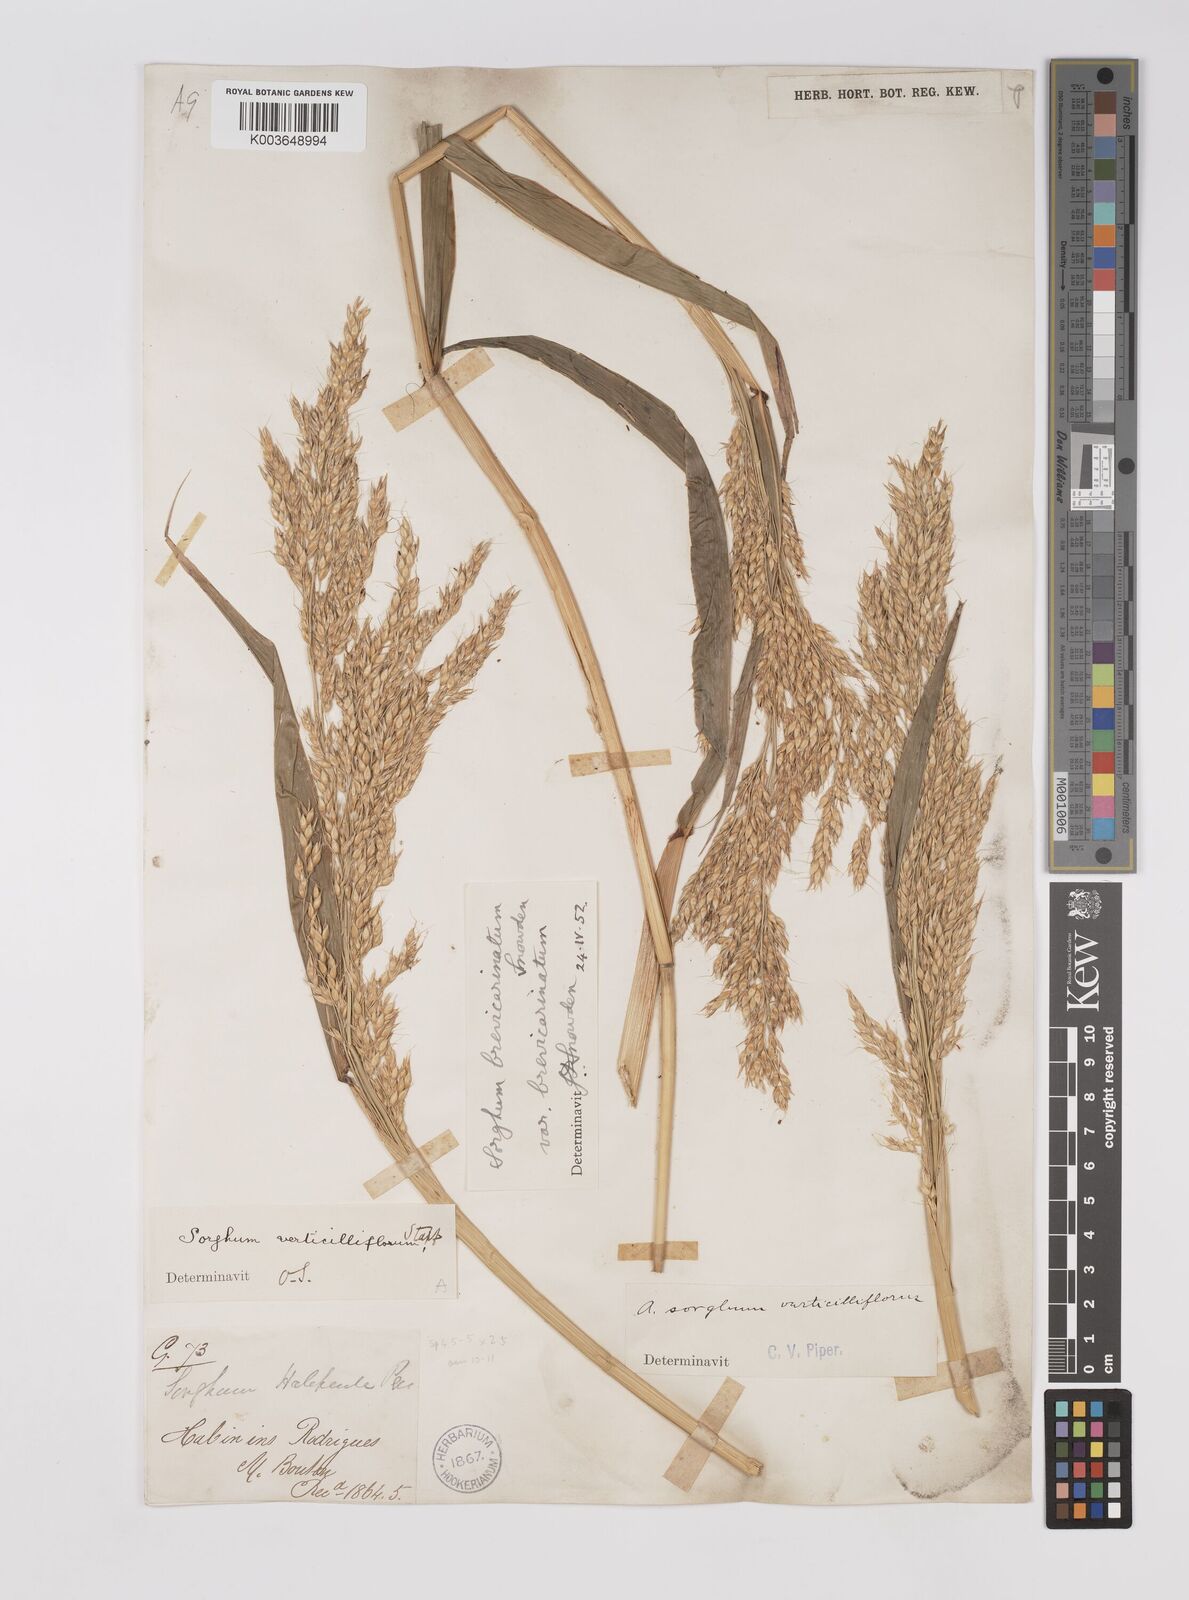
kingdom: Plantae
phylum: Tracheophyta
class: Liliopsida
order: Poales
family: Poaceae
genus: Sorghum
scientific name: Sorghum arundinaceum
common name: Sorghum
